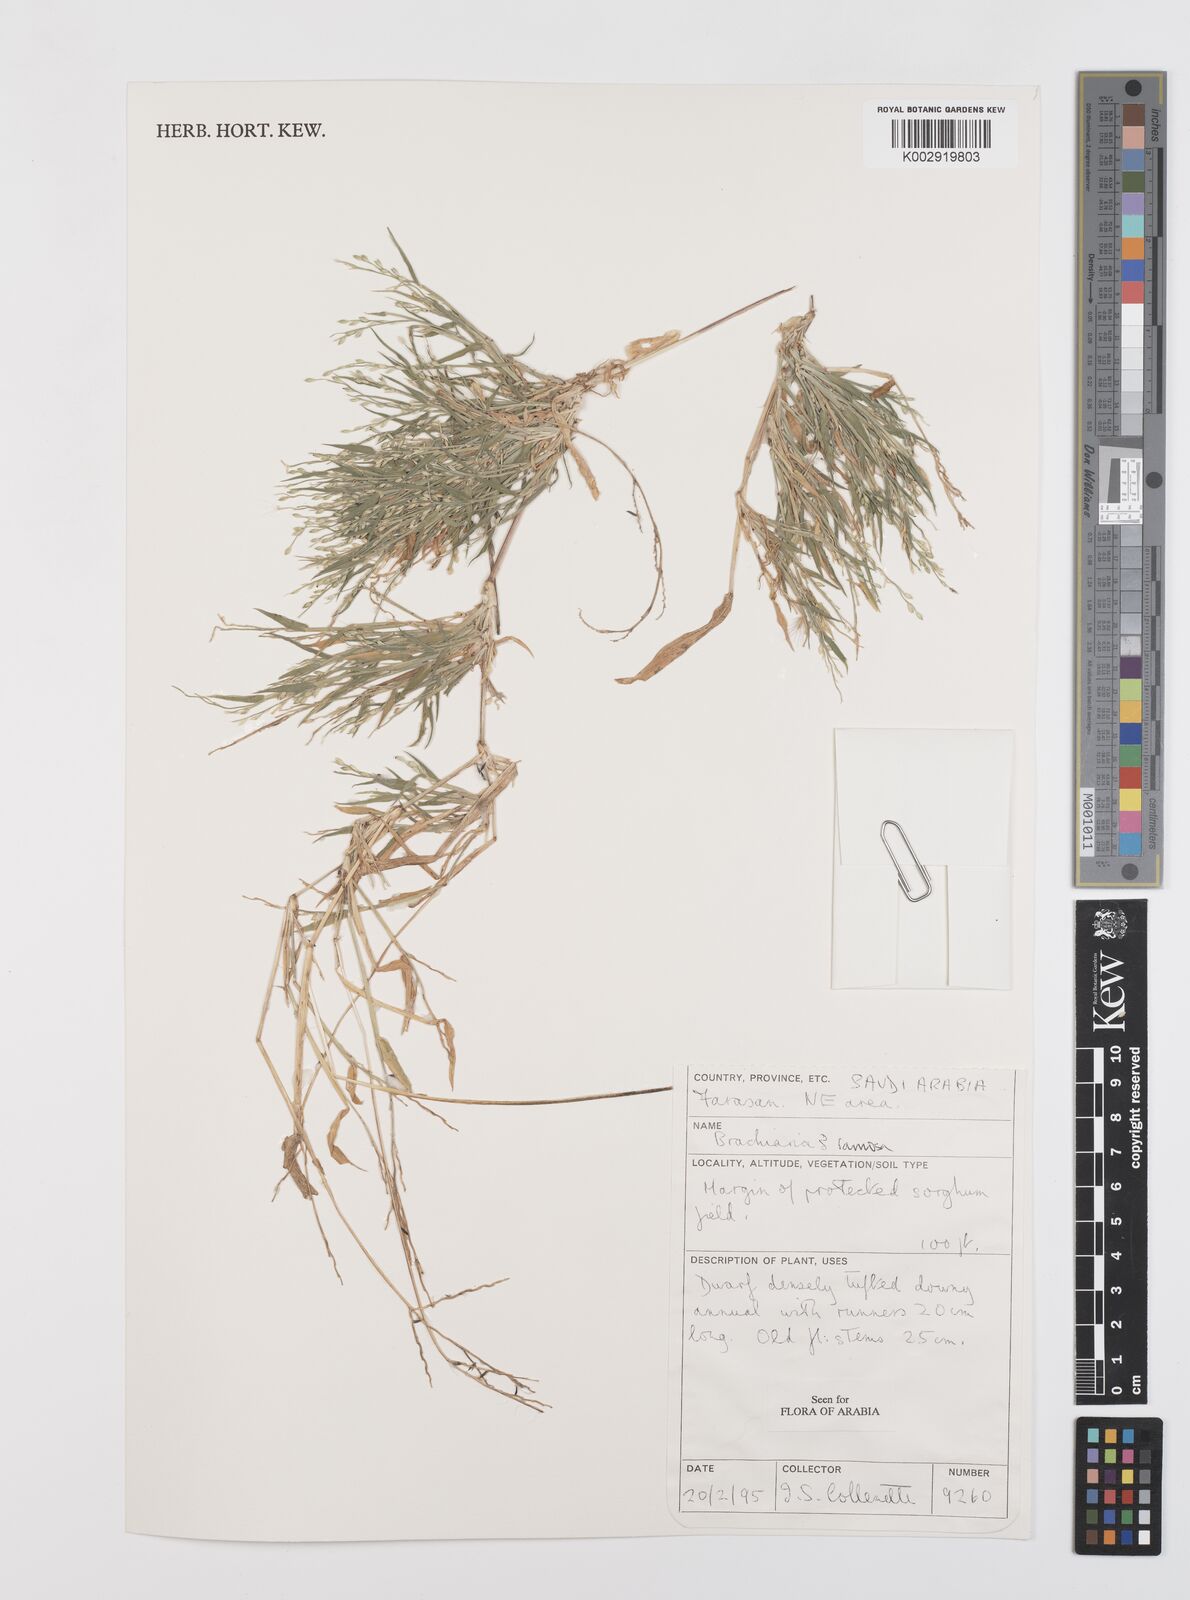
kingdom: Plantae
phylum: Tracheophyta
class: Liliopsida
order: Poales
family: Poaceae
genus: Urochloa
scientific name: Urochloa ramosa
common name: Browntop millet
